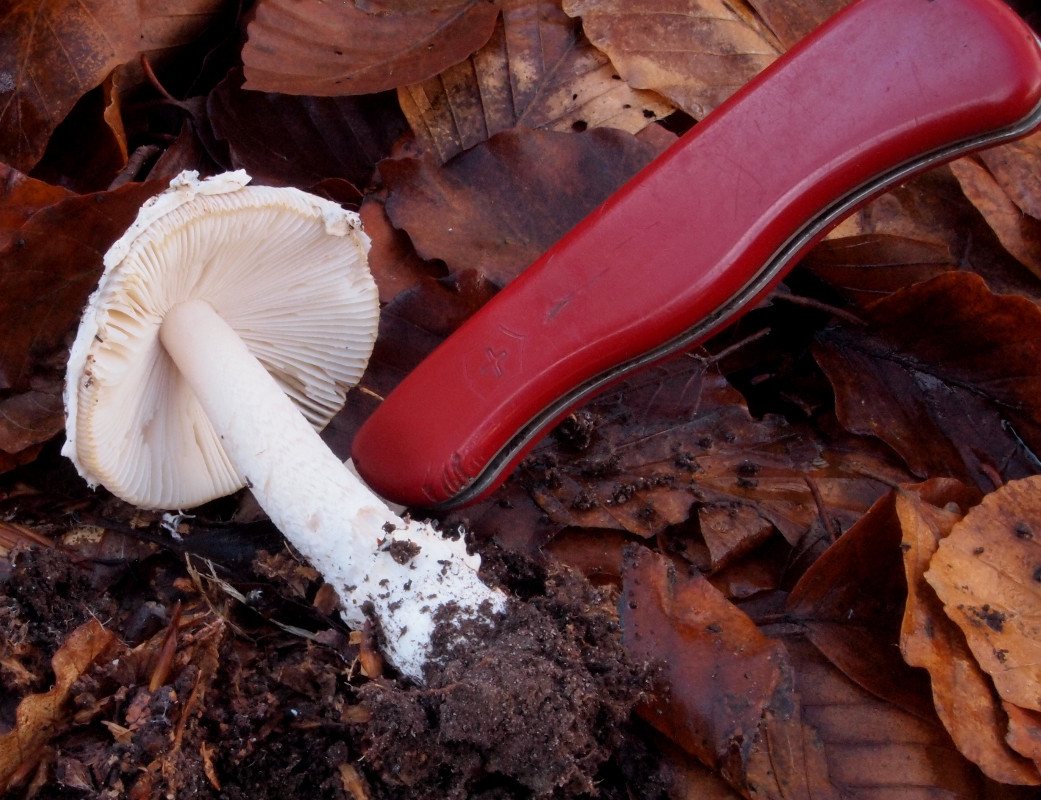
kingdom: Fungi
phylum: Basidiomycota
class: Agaricomycetes
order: Agaricales
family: Amanitaceae
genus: Amanita
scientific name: Amanita
